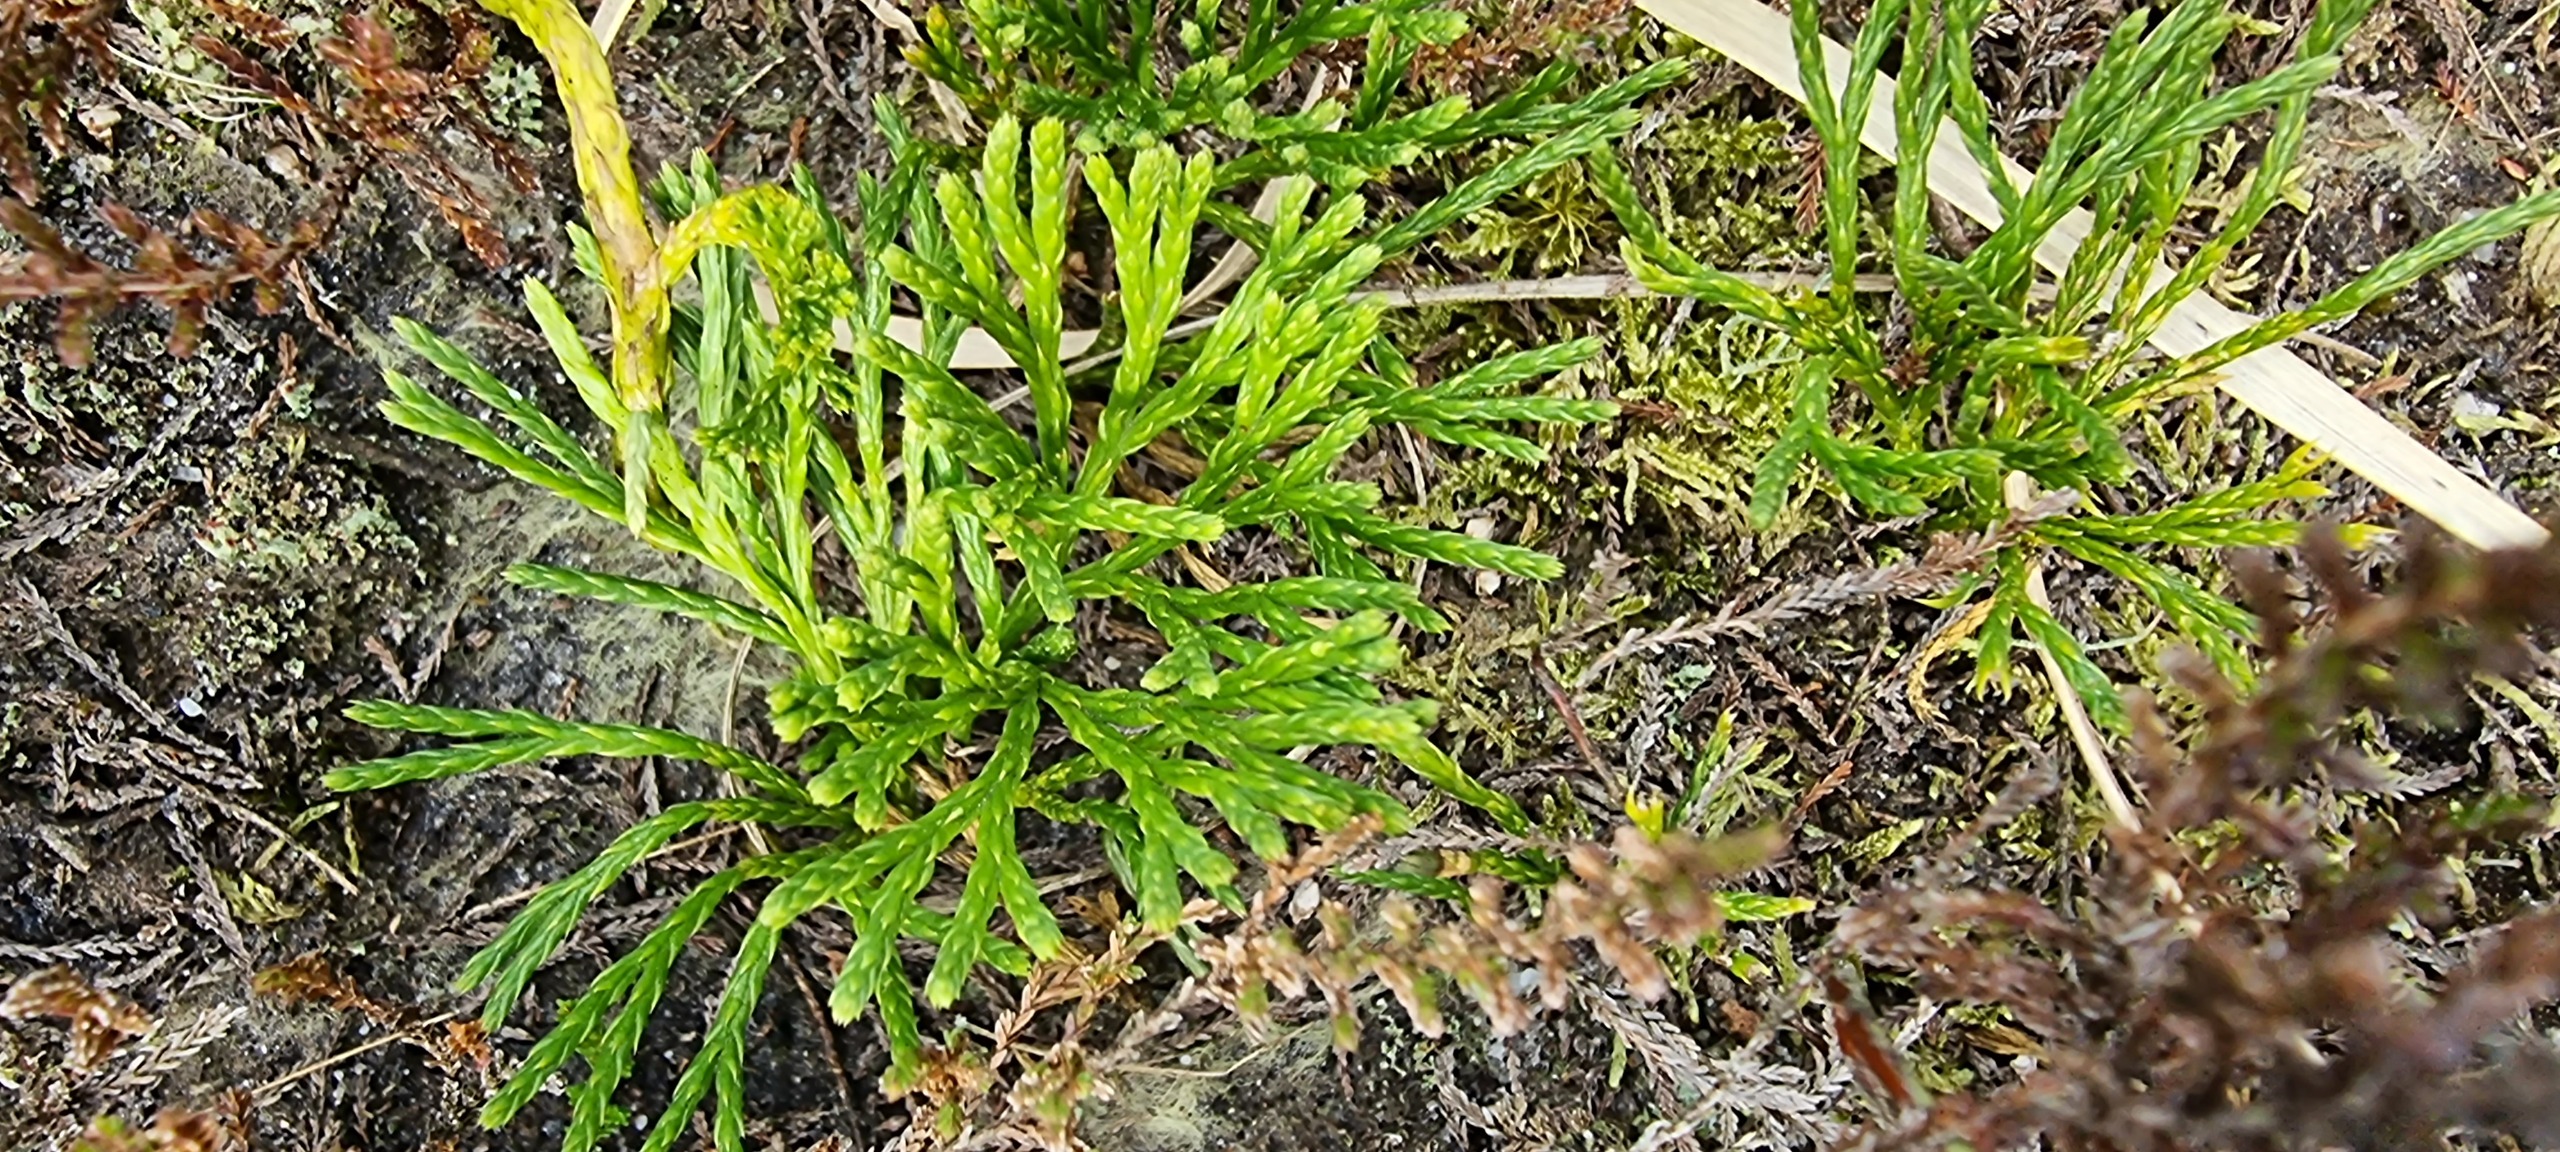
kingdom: Plantae
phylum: Tracheophyta
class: Lycopodiopsida
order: Lycopodiales
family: Lycopodiaceae
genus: Diphasiastrum
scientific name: Diphasiastrum tristachyum
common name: Flad ulvefod × cypres-ulvefod
